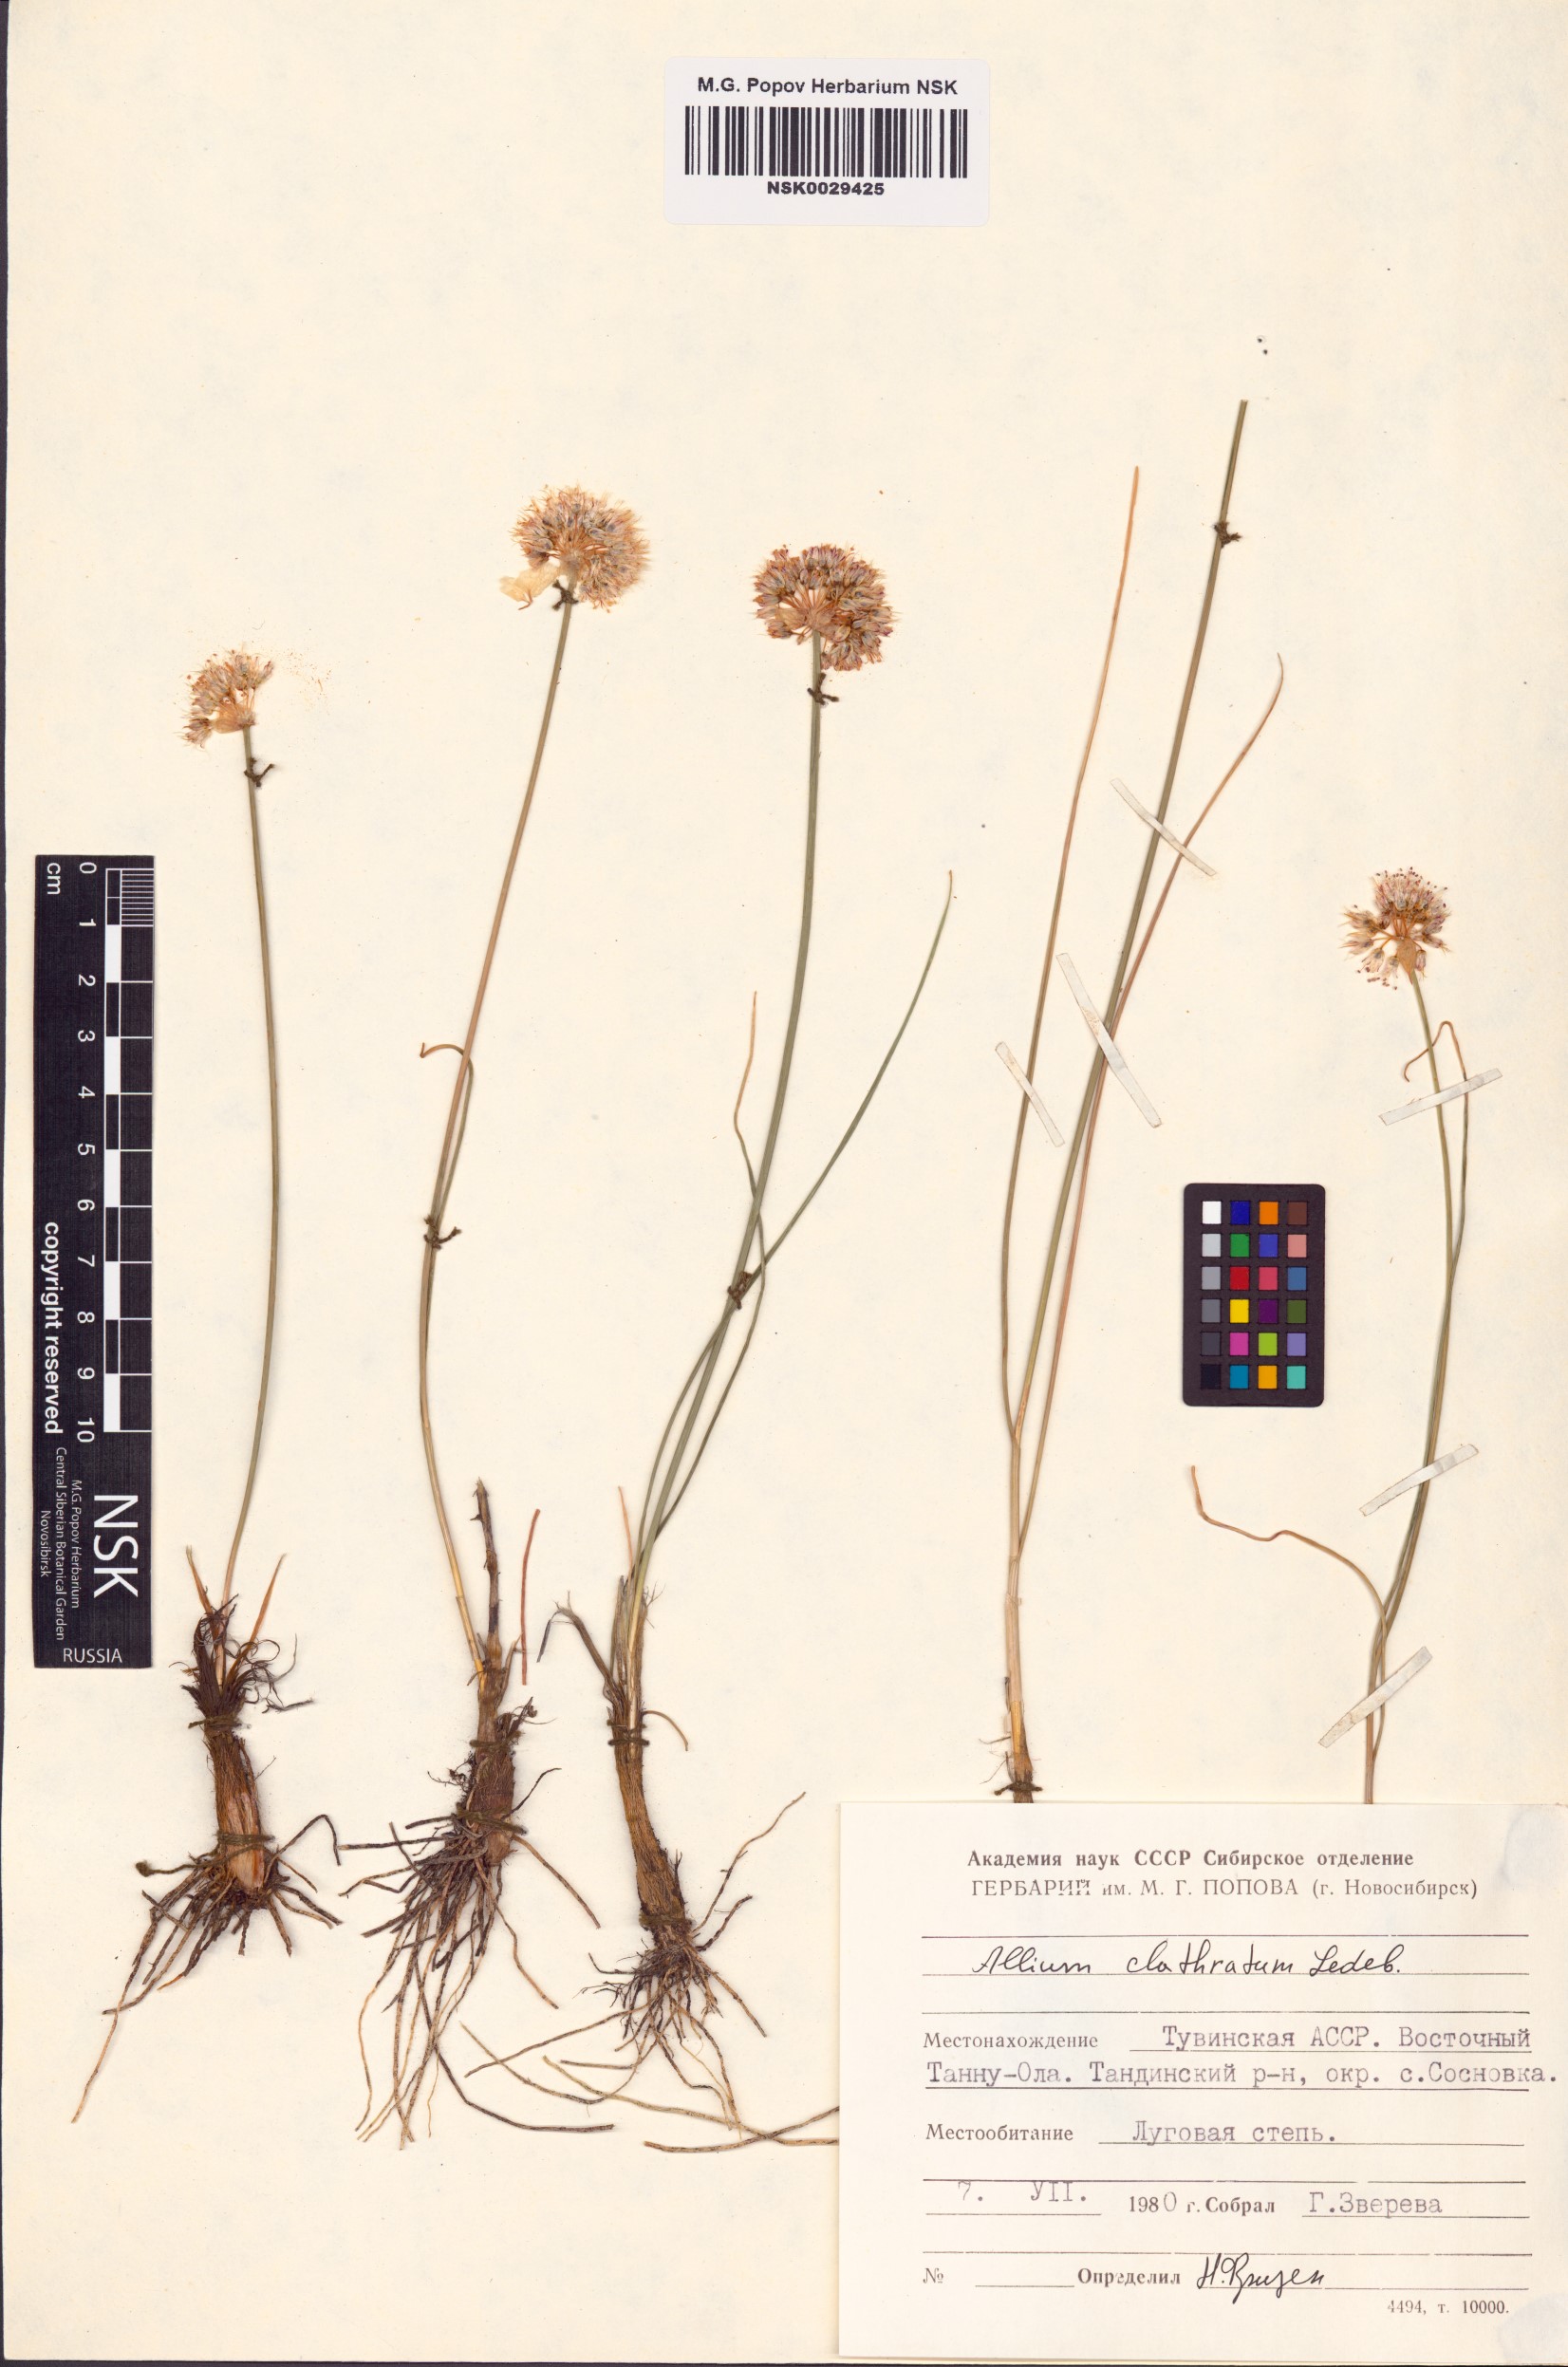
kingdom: Plantae
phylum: Tracheophyta
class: Liliopsida
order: Asparagales
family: Amaryllidaceae
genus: Allium
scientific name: Allium clathratum
